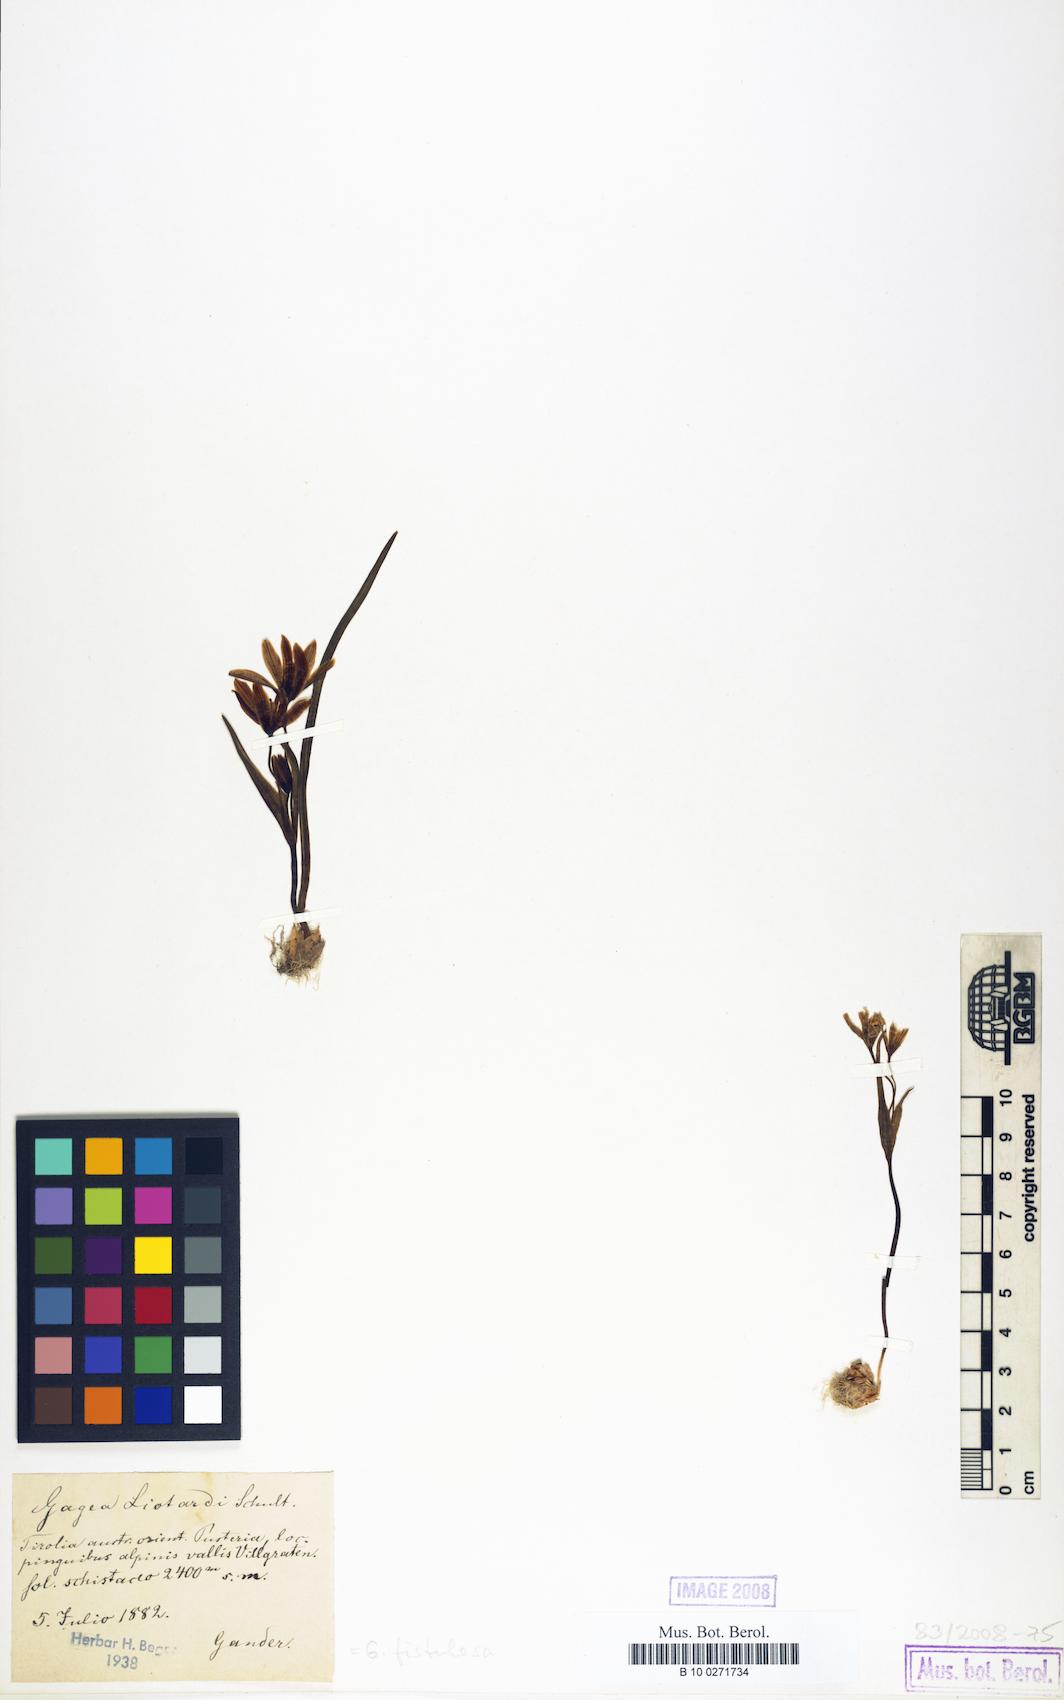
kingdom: Plantae
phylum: Tracheophyta
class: Liliopsida
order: Liliales
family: Liliaceae
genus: Gagea
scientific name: Gagea bohemica
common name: Early star-of-bethlehem
